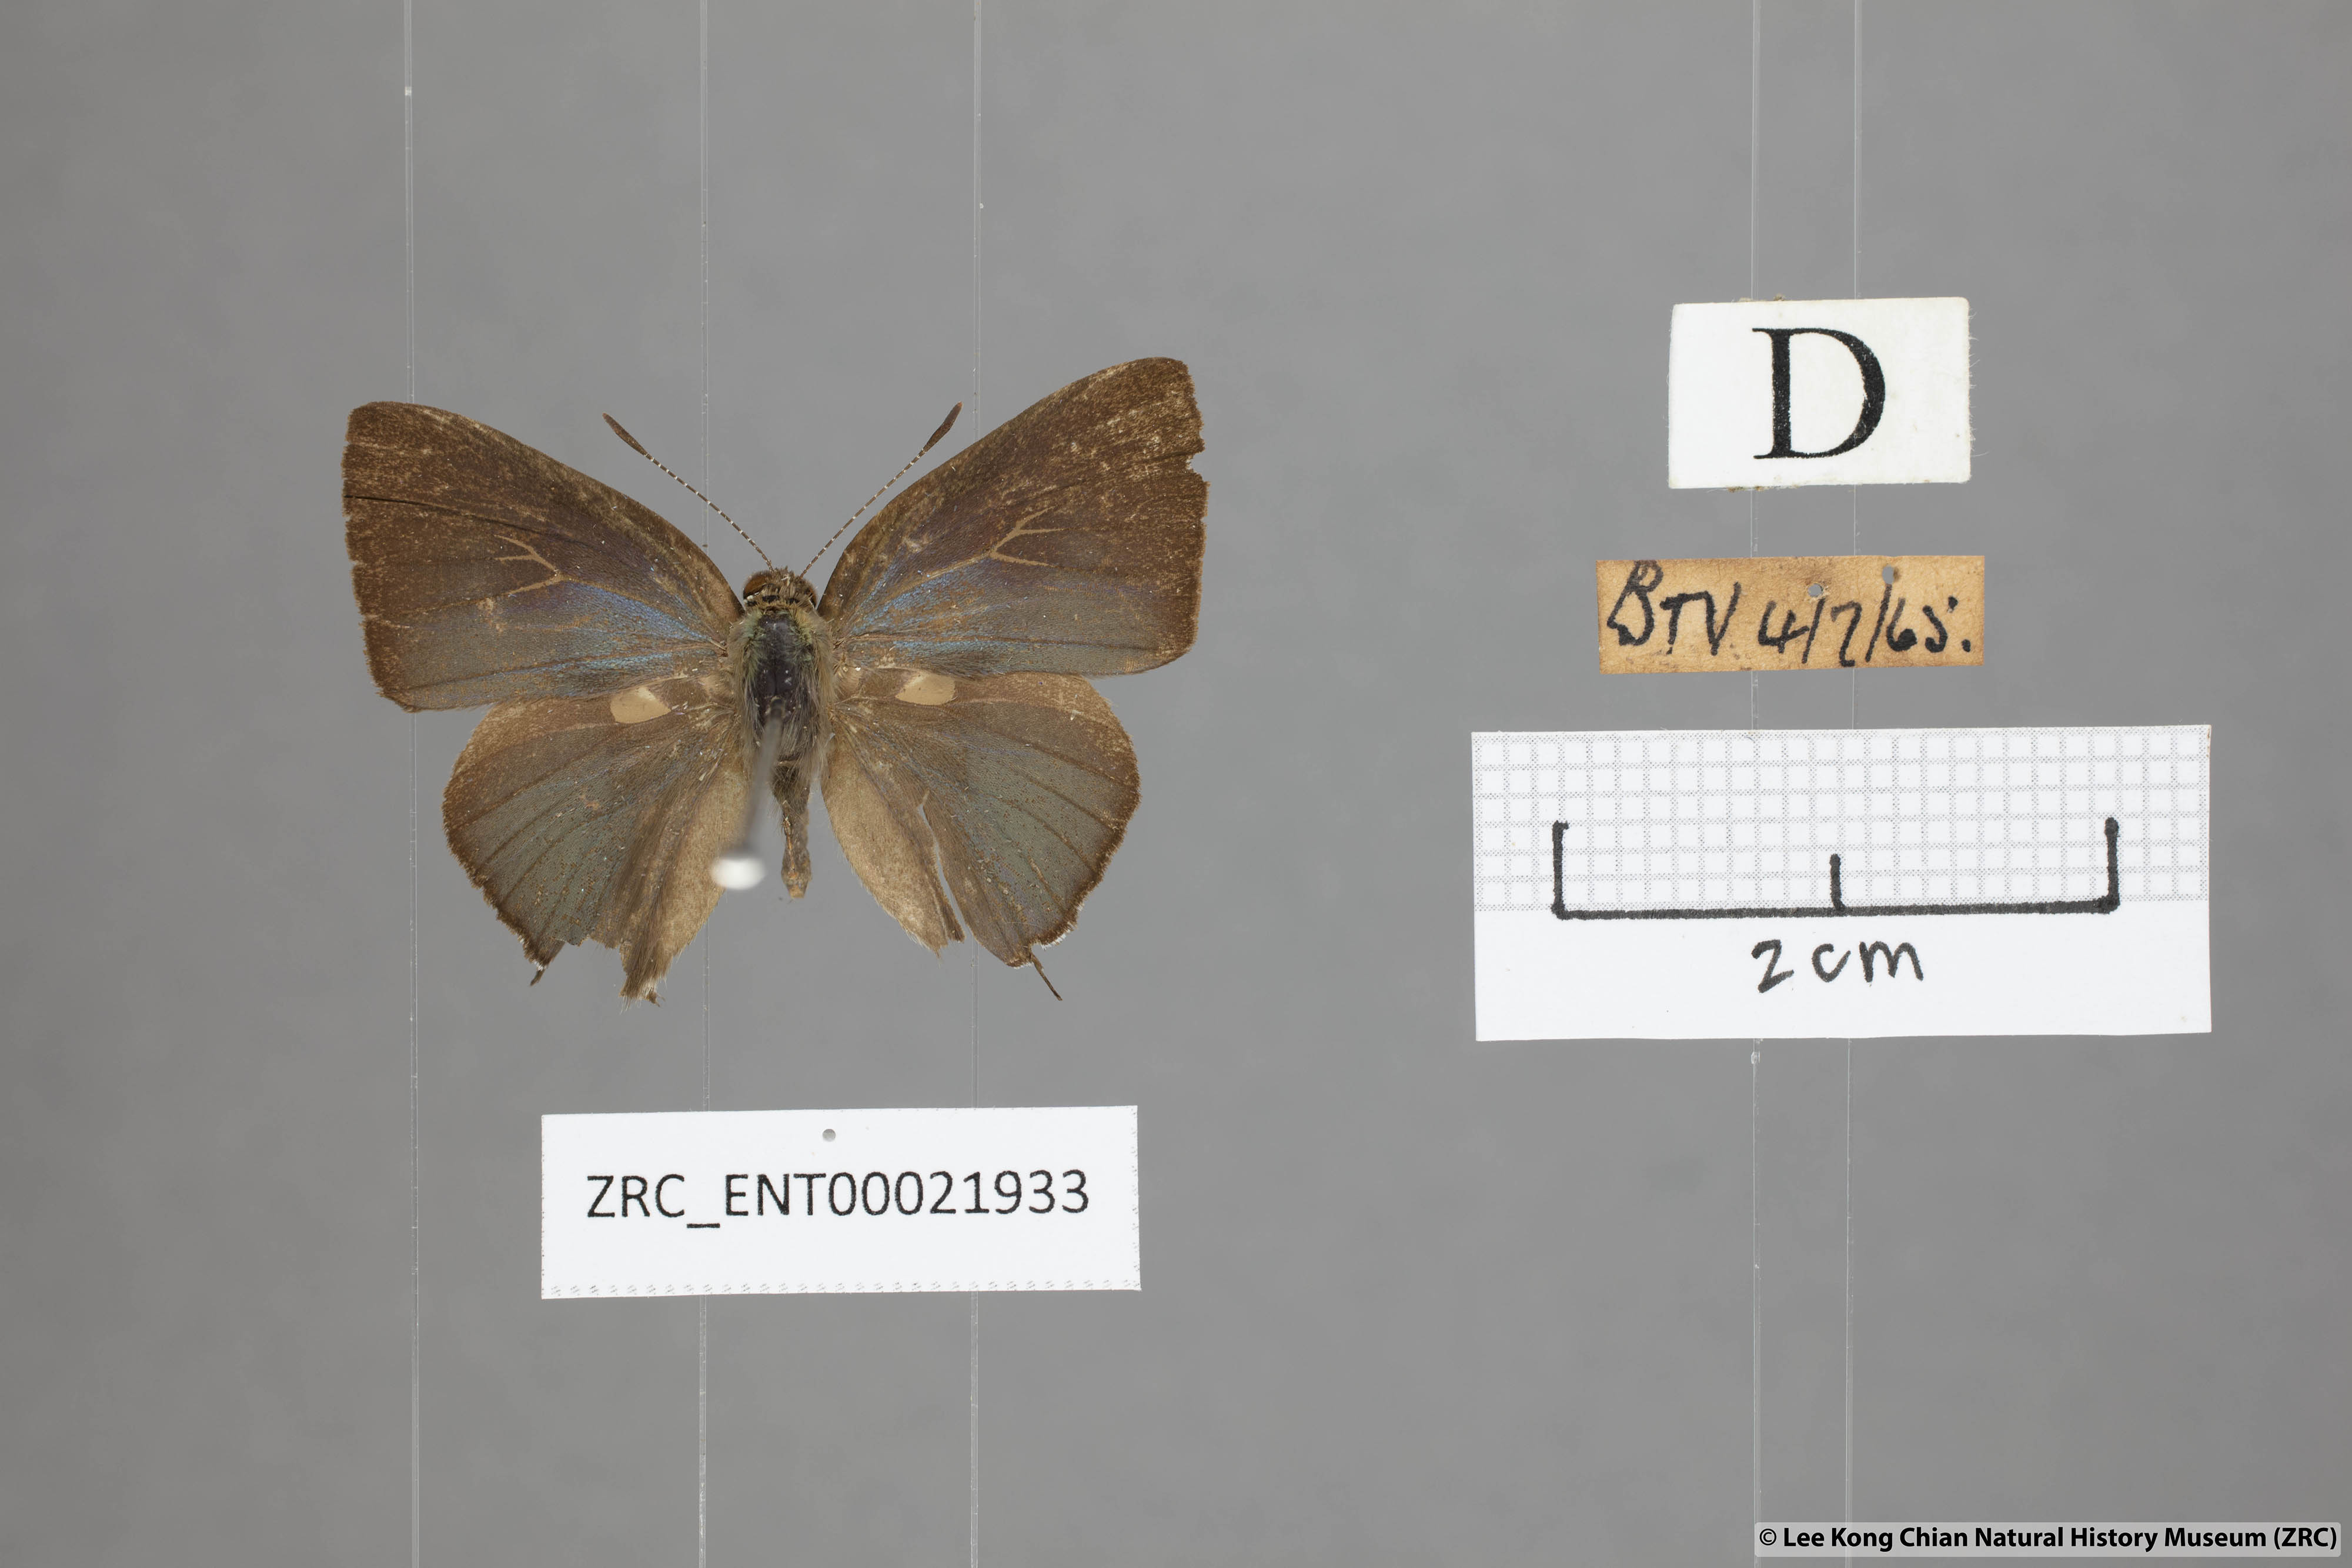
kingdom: Animalia
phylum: Arthropoda
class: Insecta
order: Lepidoptera
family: Lycaenidae
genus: Rapala
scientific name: Rapala varuna
